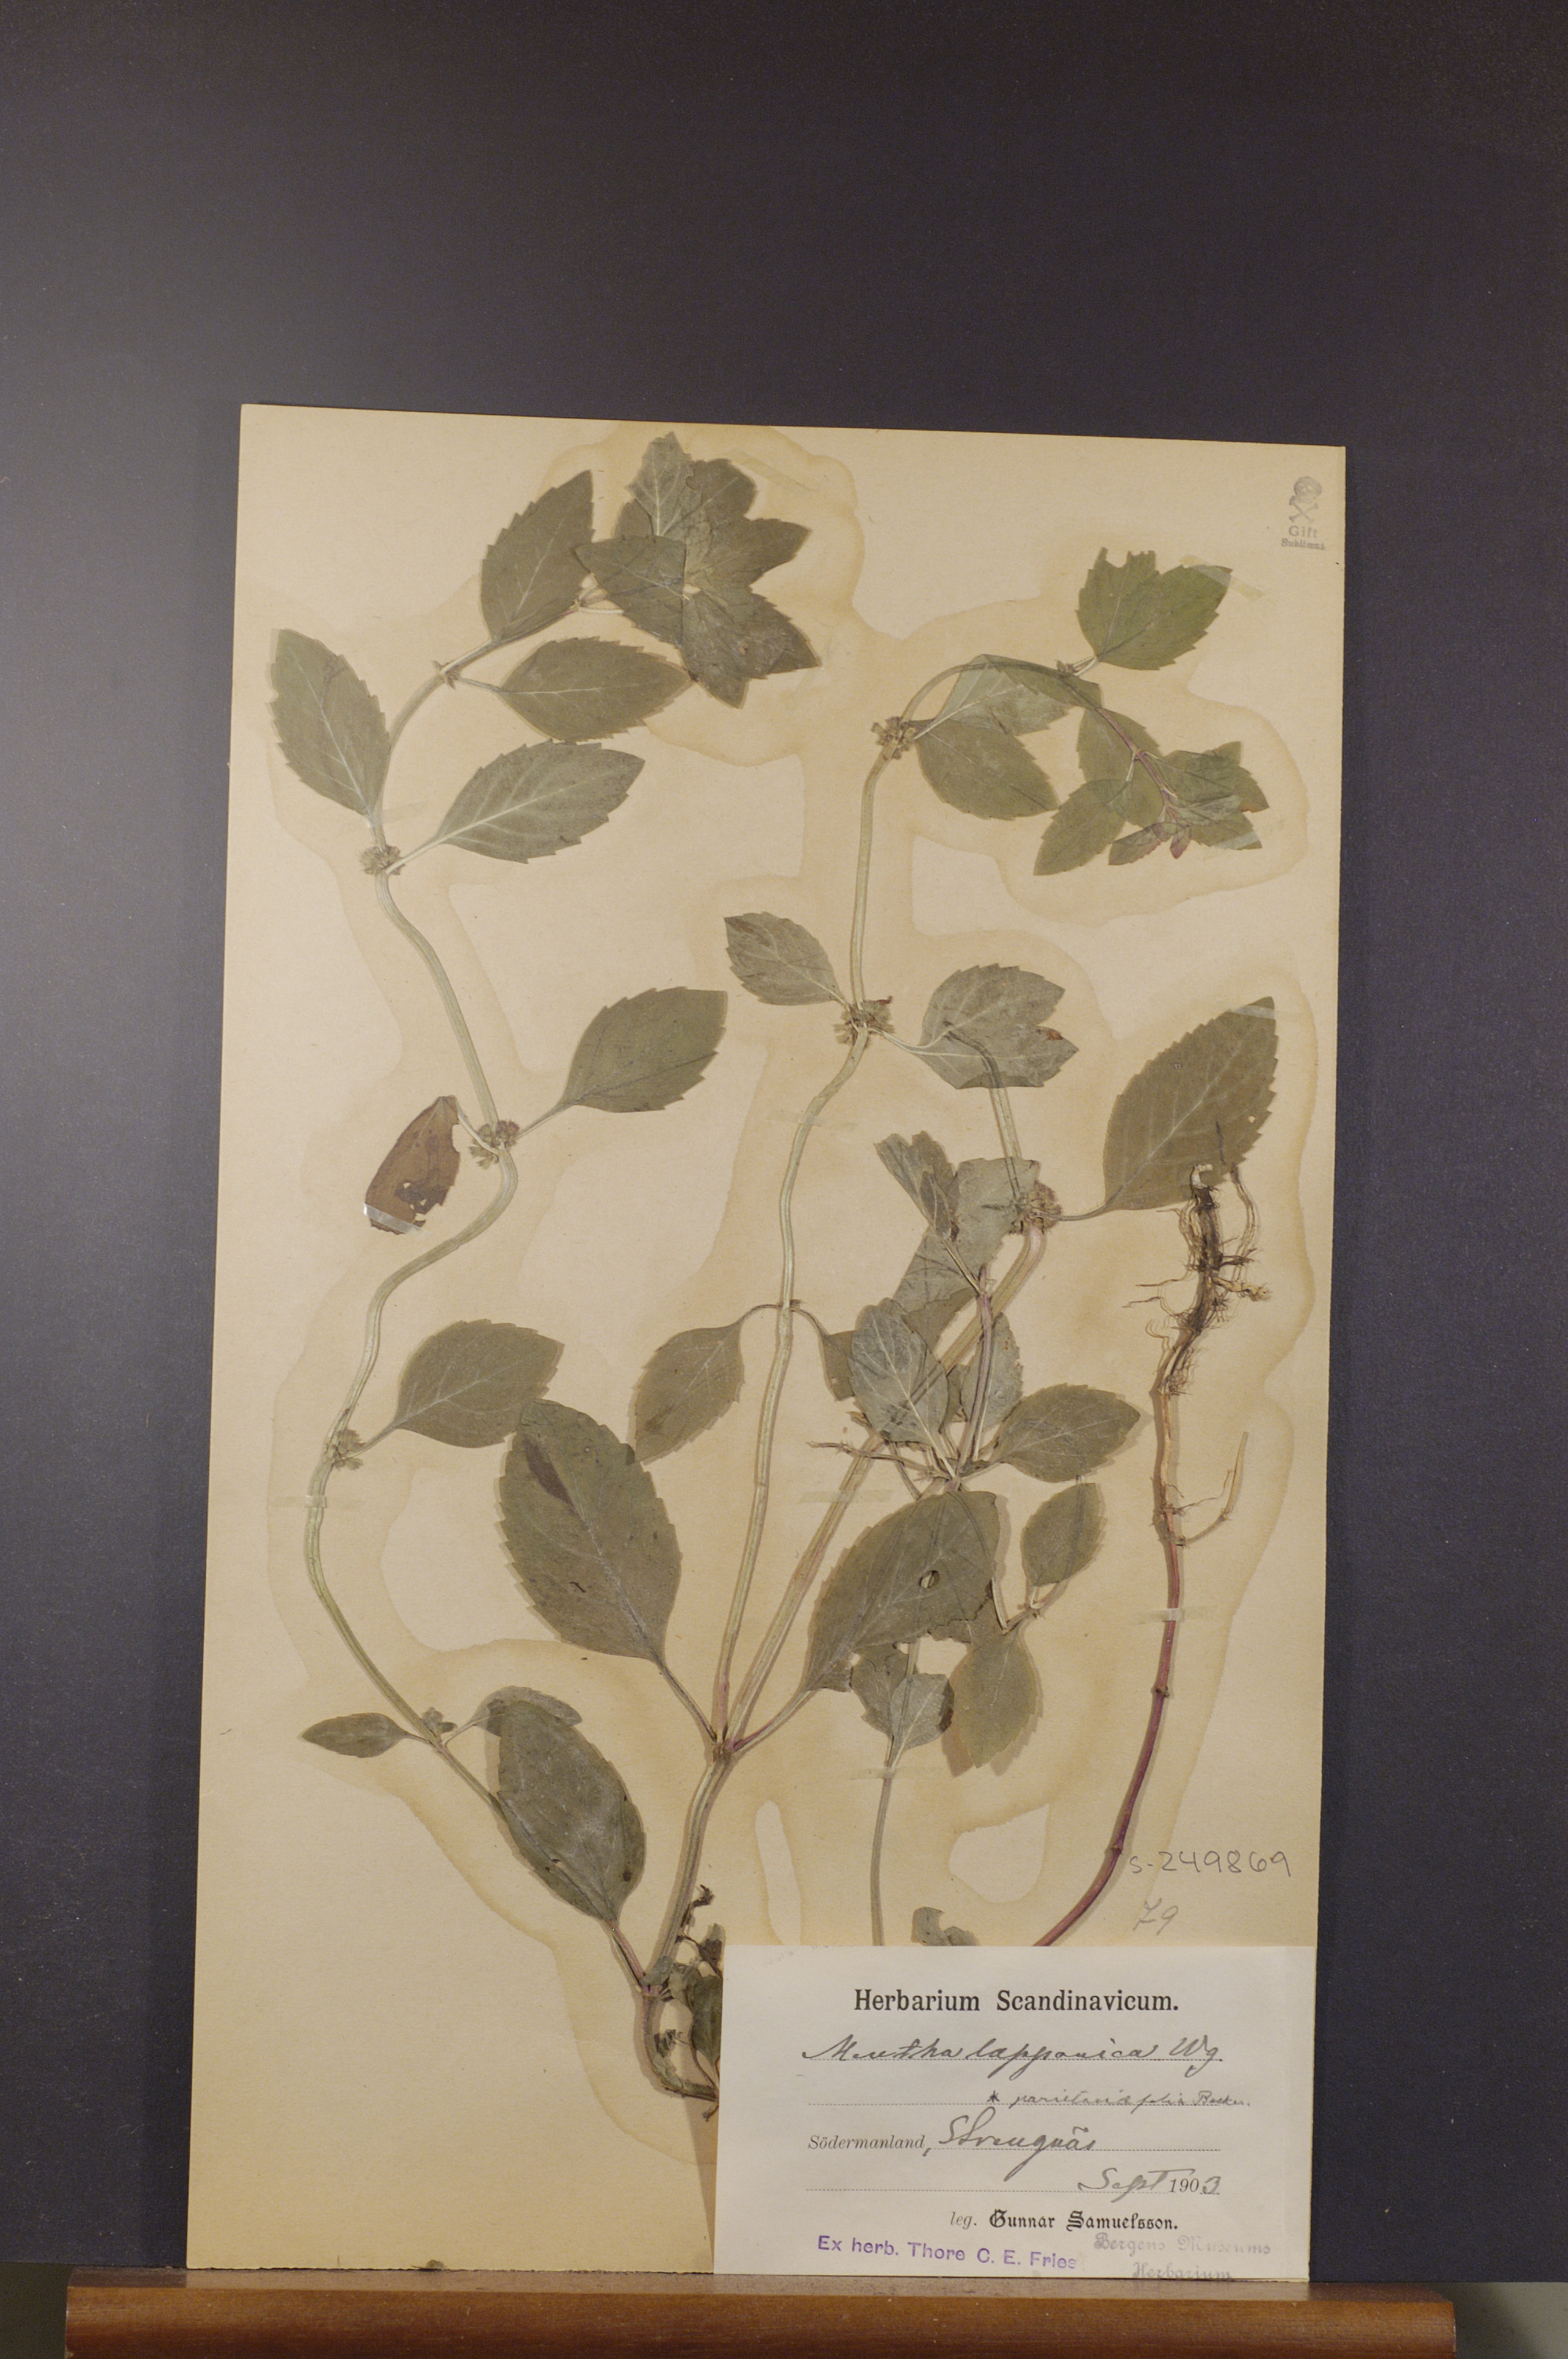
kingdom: Plantae
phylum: Tracheophyta
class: Magnoliopsida
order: Lamiales
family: Lamiaceae
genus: Mentha
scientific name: Mentha arvensis
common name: Corn mint
